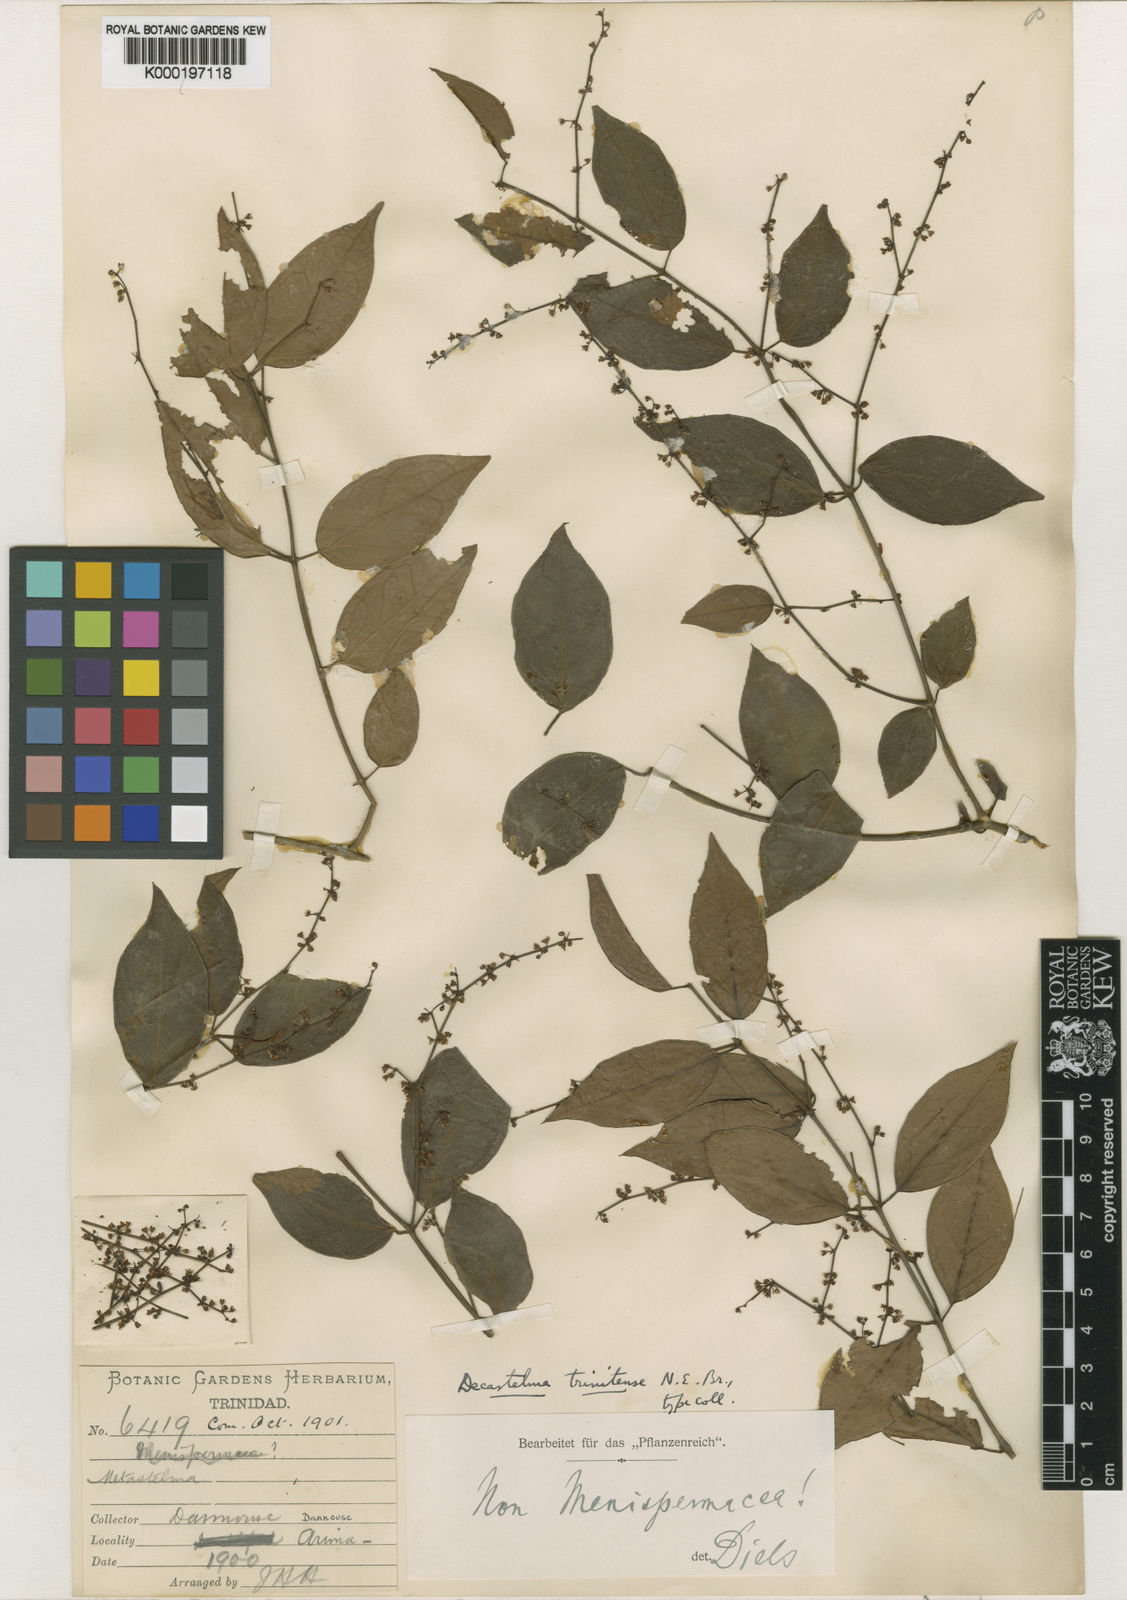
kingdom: Plantae
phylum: Tracheophyta
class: Magnoliopsida
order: Gentianales
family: Apocynaceae
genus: Tassadia
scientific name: Tassadia obovata
